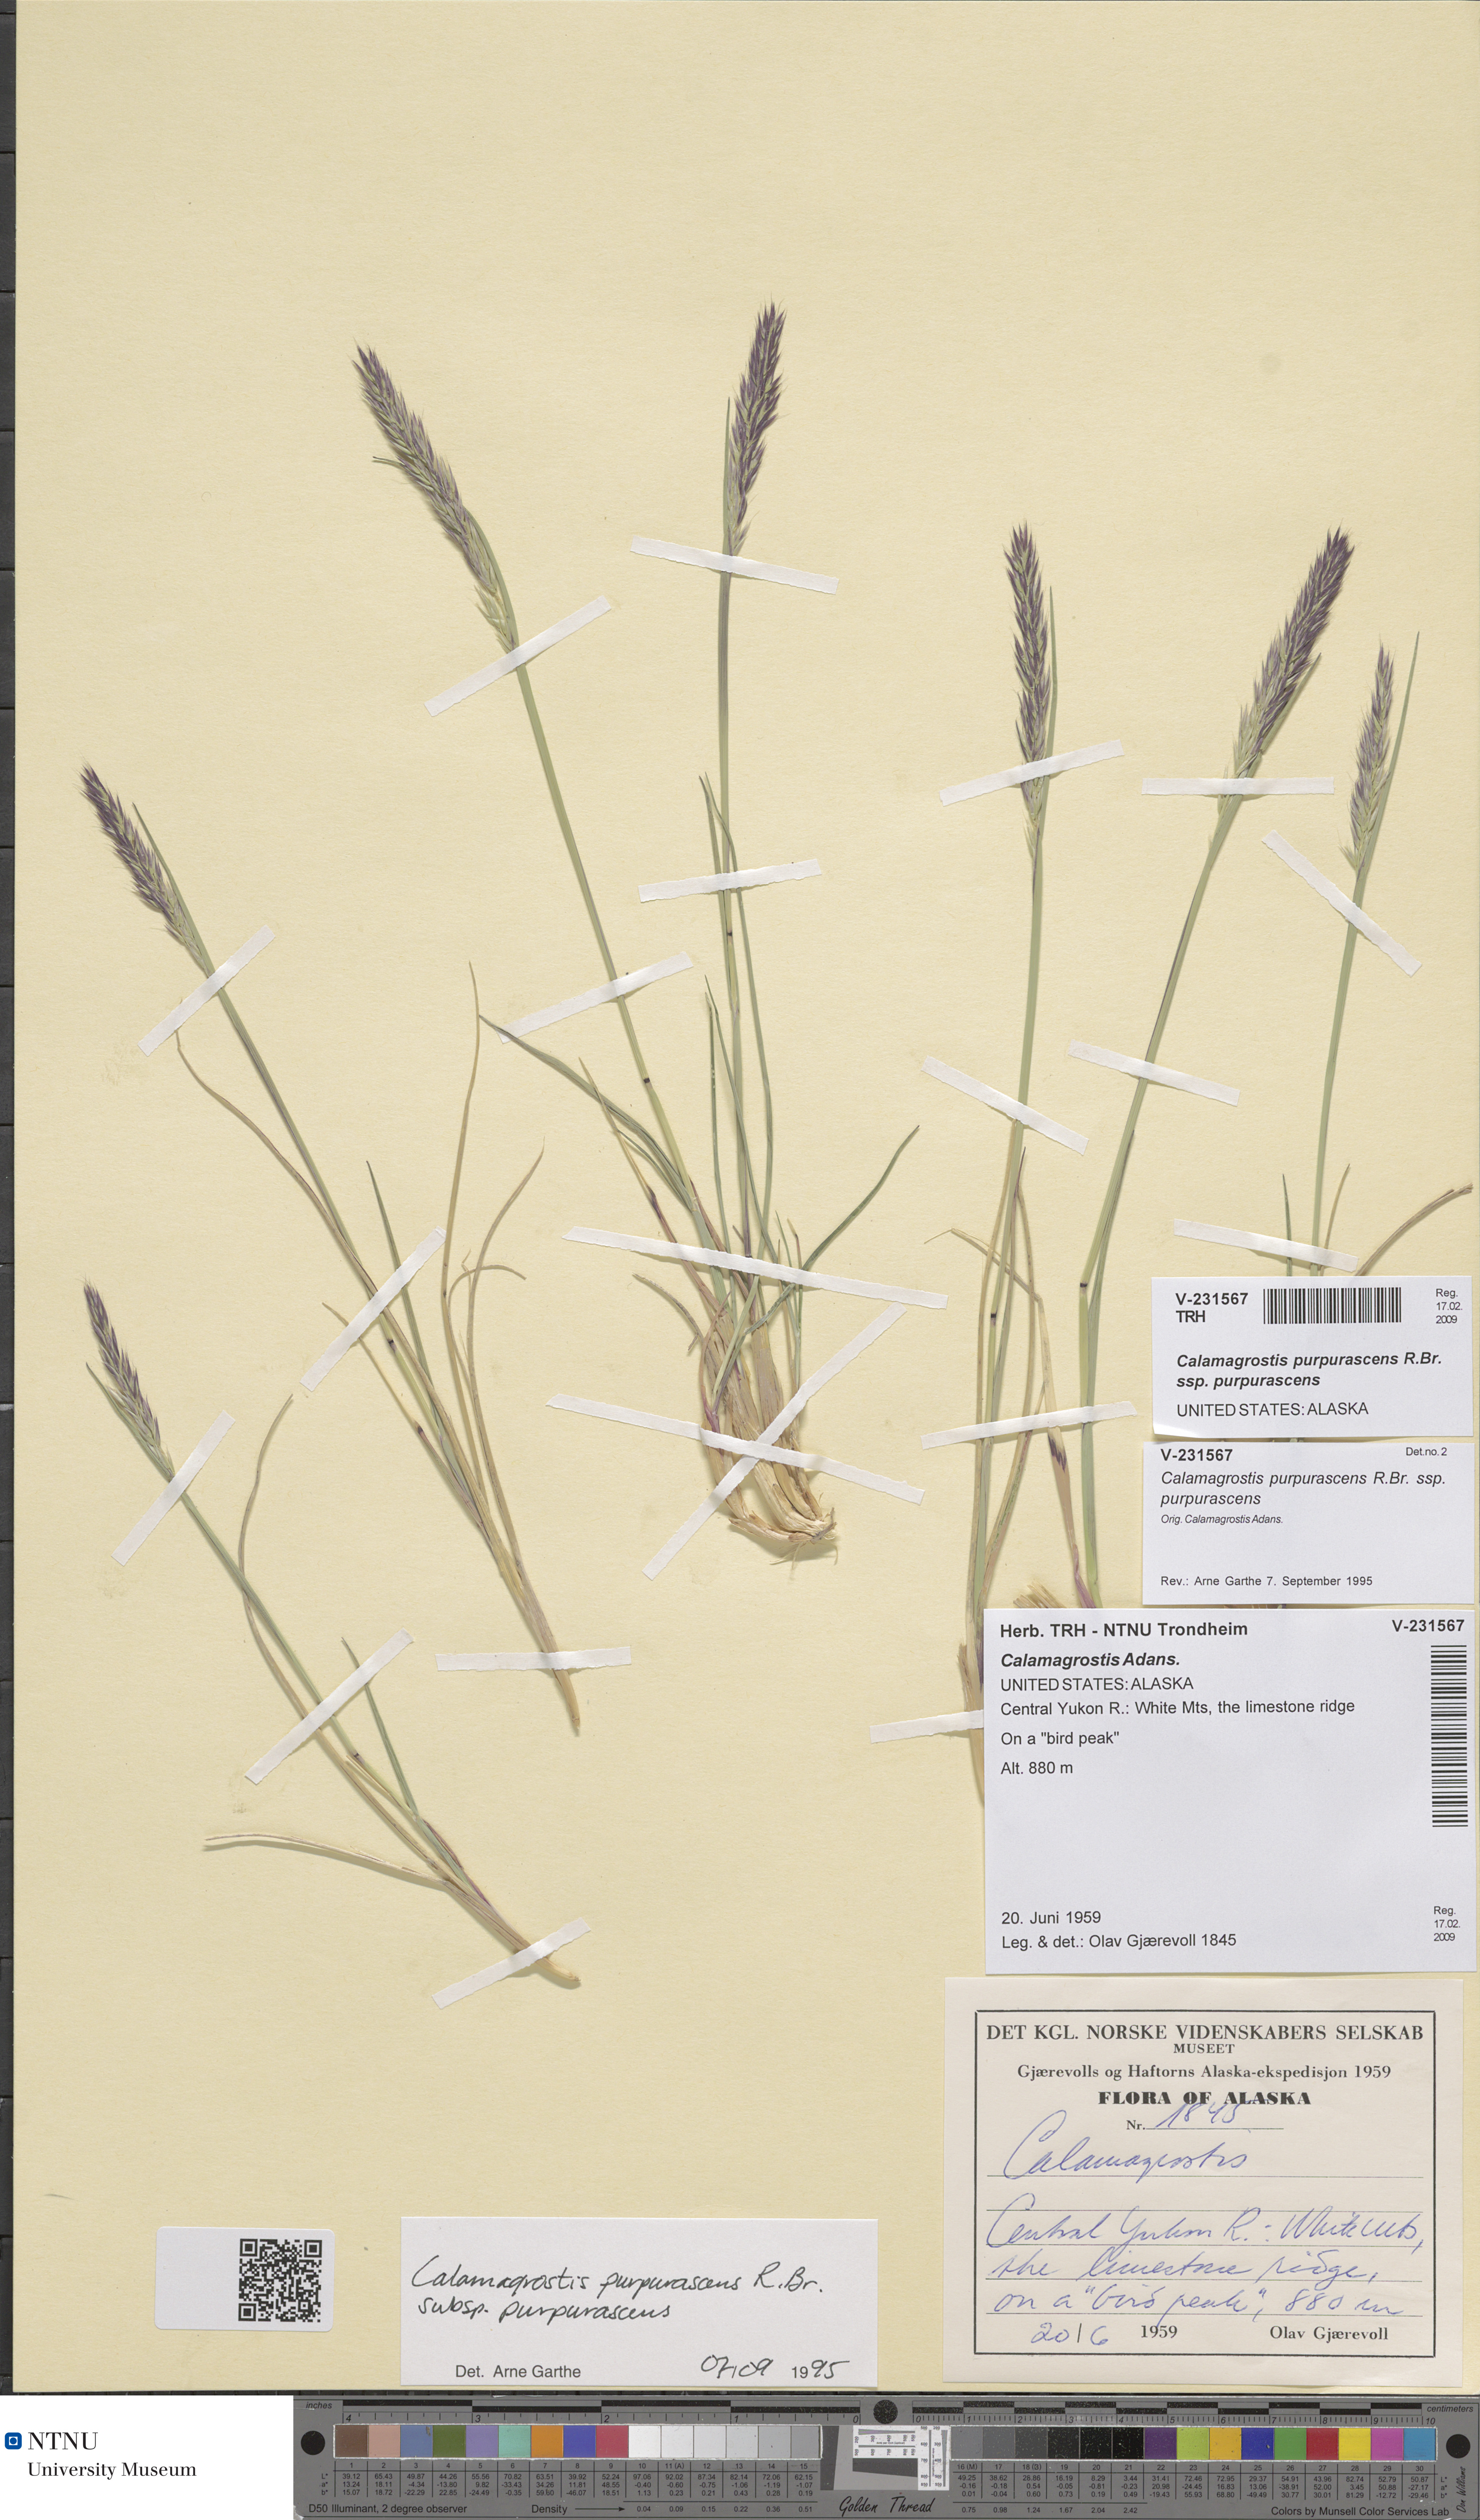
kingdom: Plantae
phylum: Tracheophyta
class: Liliopsida
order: Poales
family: Poaceae
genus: Calamagrostis
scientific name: Calamagrostis purpurascens
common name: Purple reedgrass
